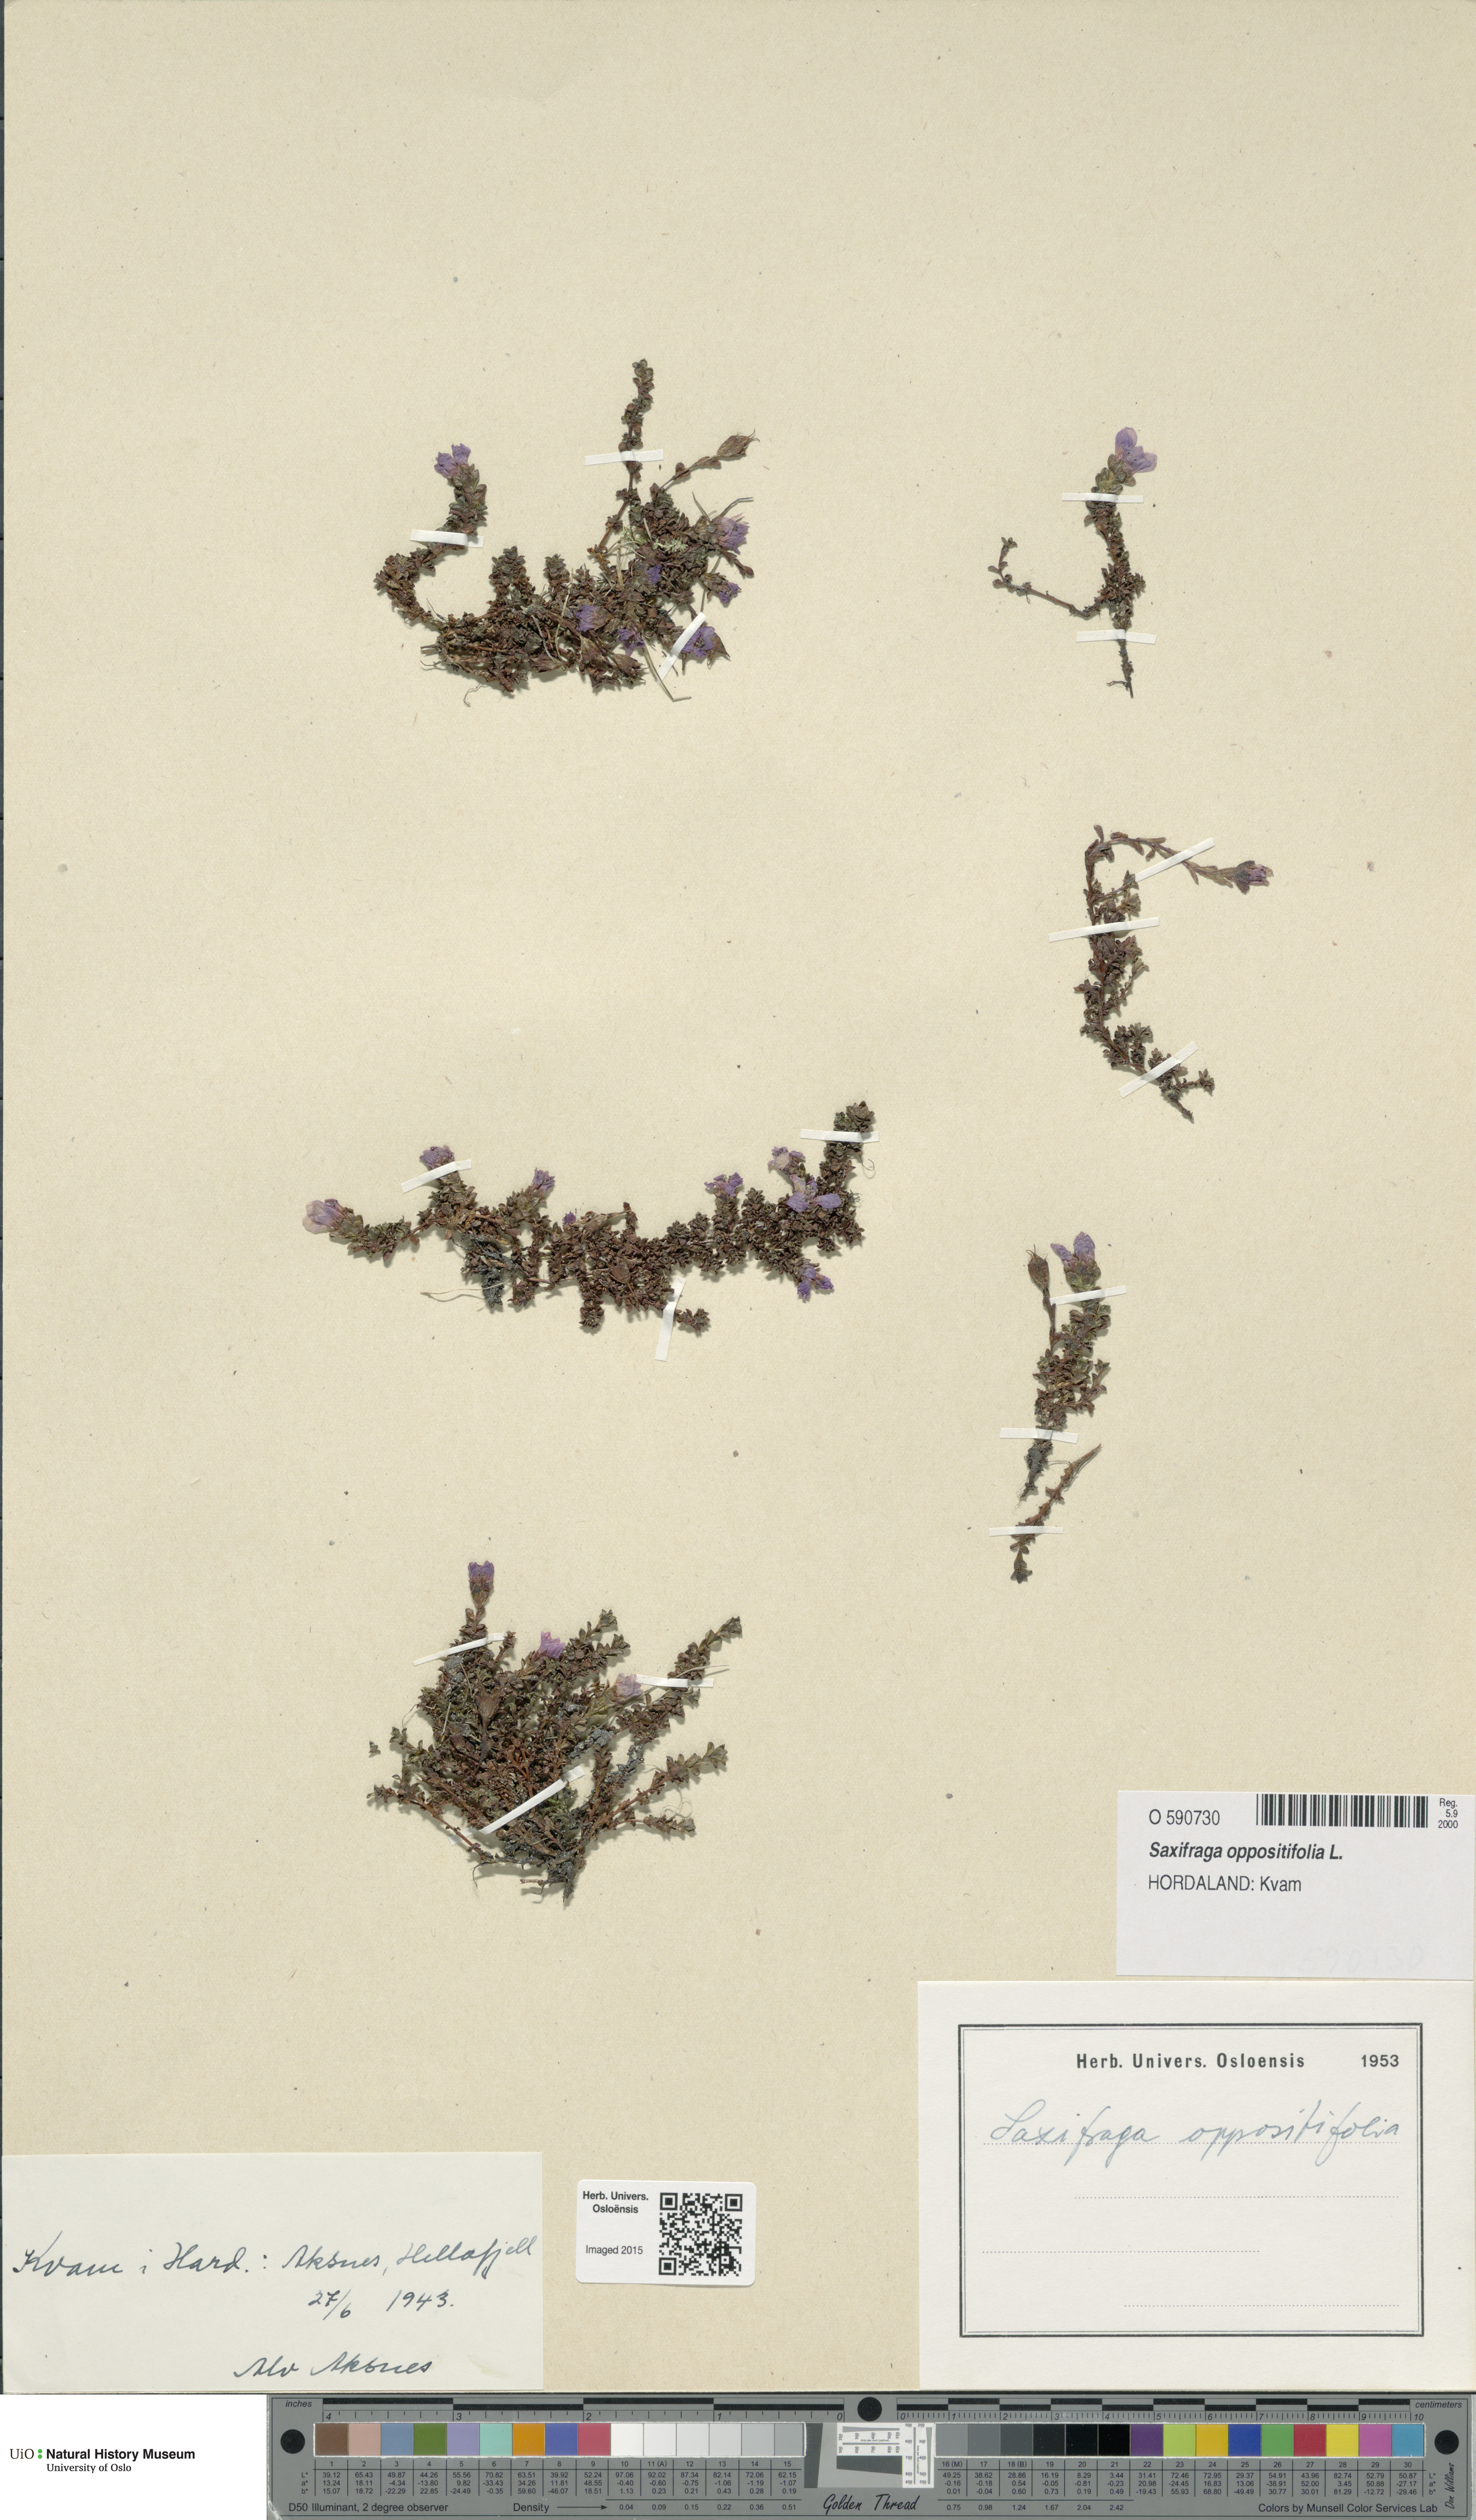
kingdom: Plantae
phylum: Tracheophyta
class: Magnoliopsida
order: Saxifragales
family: Saxifragaceae
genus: Saxifraga
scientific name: Saxifraga oppositifolia
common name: Purple saxifrage
